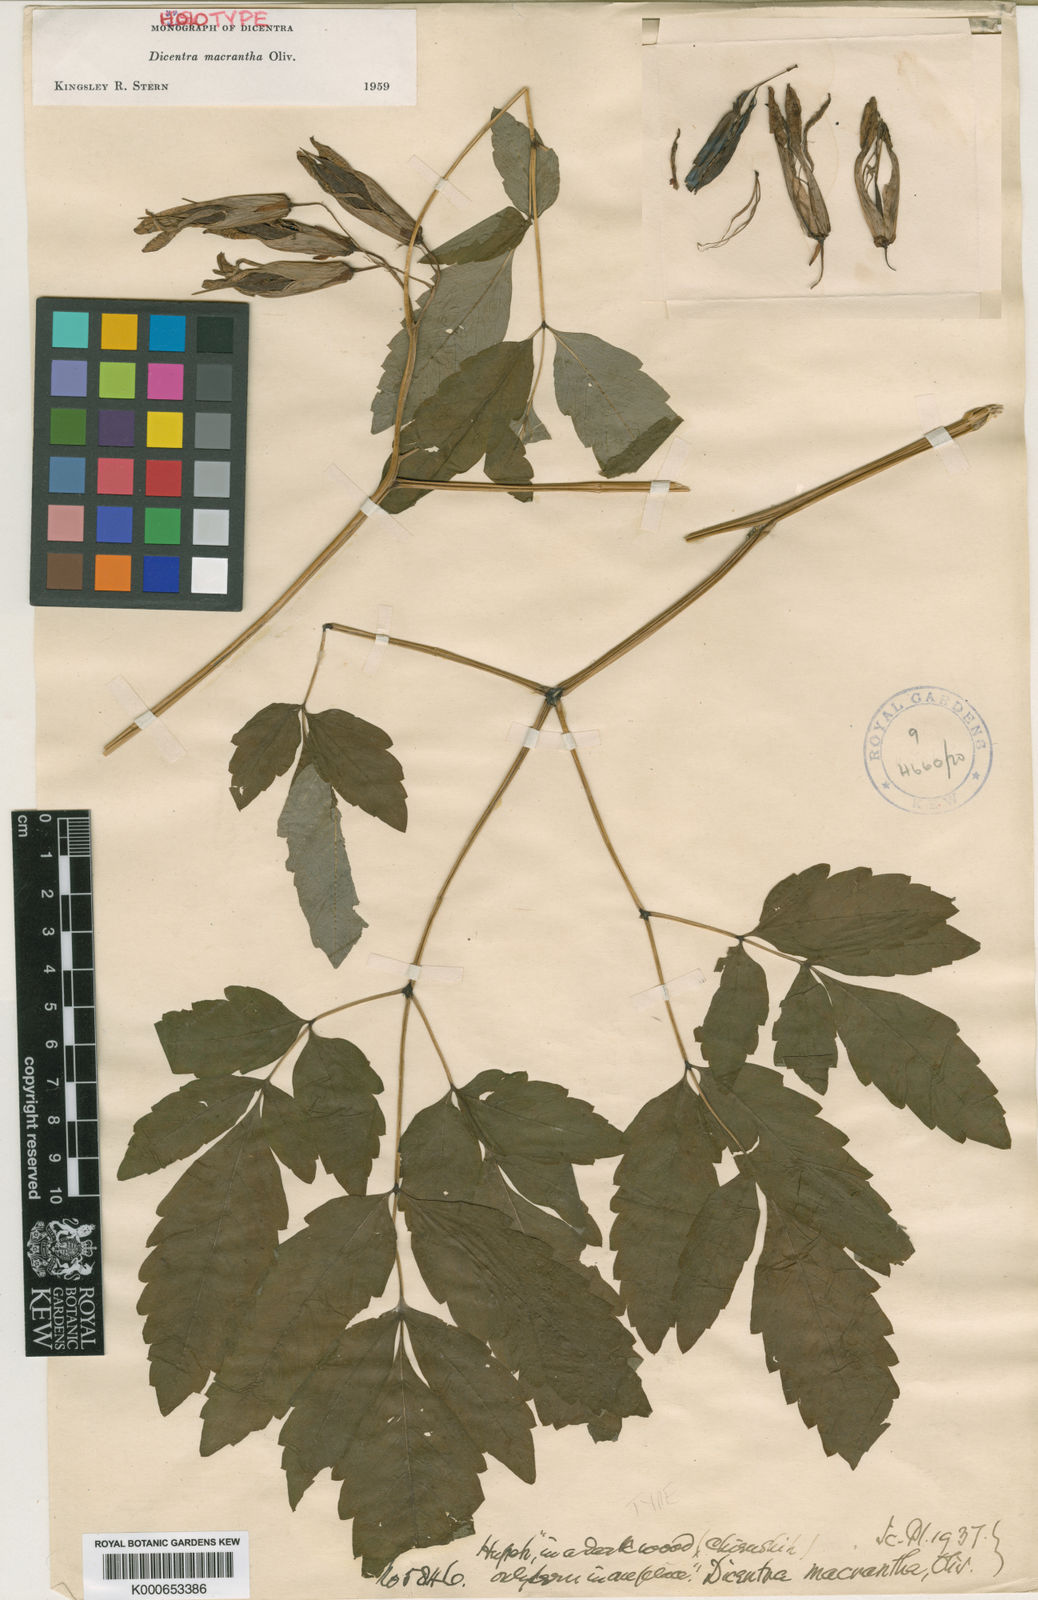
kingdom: Plantae
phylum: Tracheophyta
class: Magnoliopsida
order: Ranunculales
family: Papaveraceae
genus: Ichtyoselmis
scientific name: Ichtyoselmis macrantha
